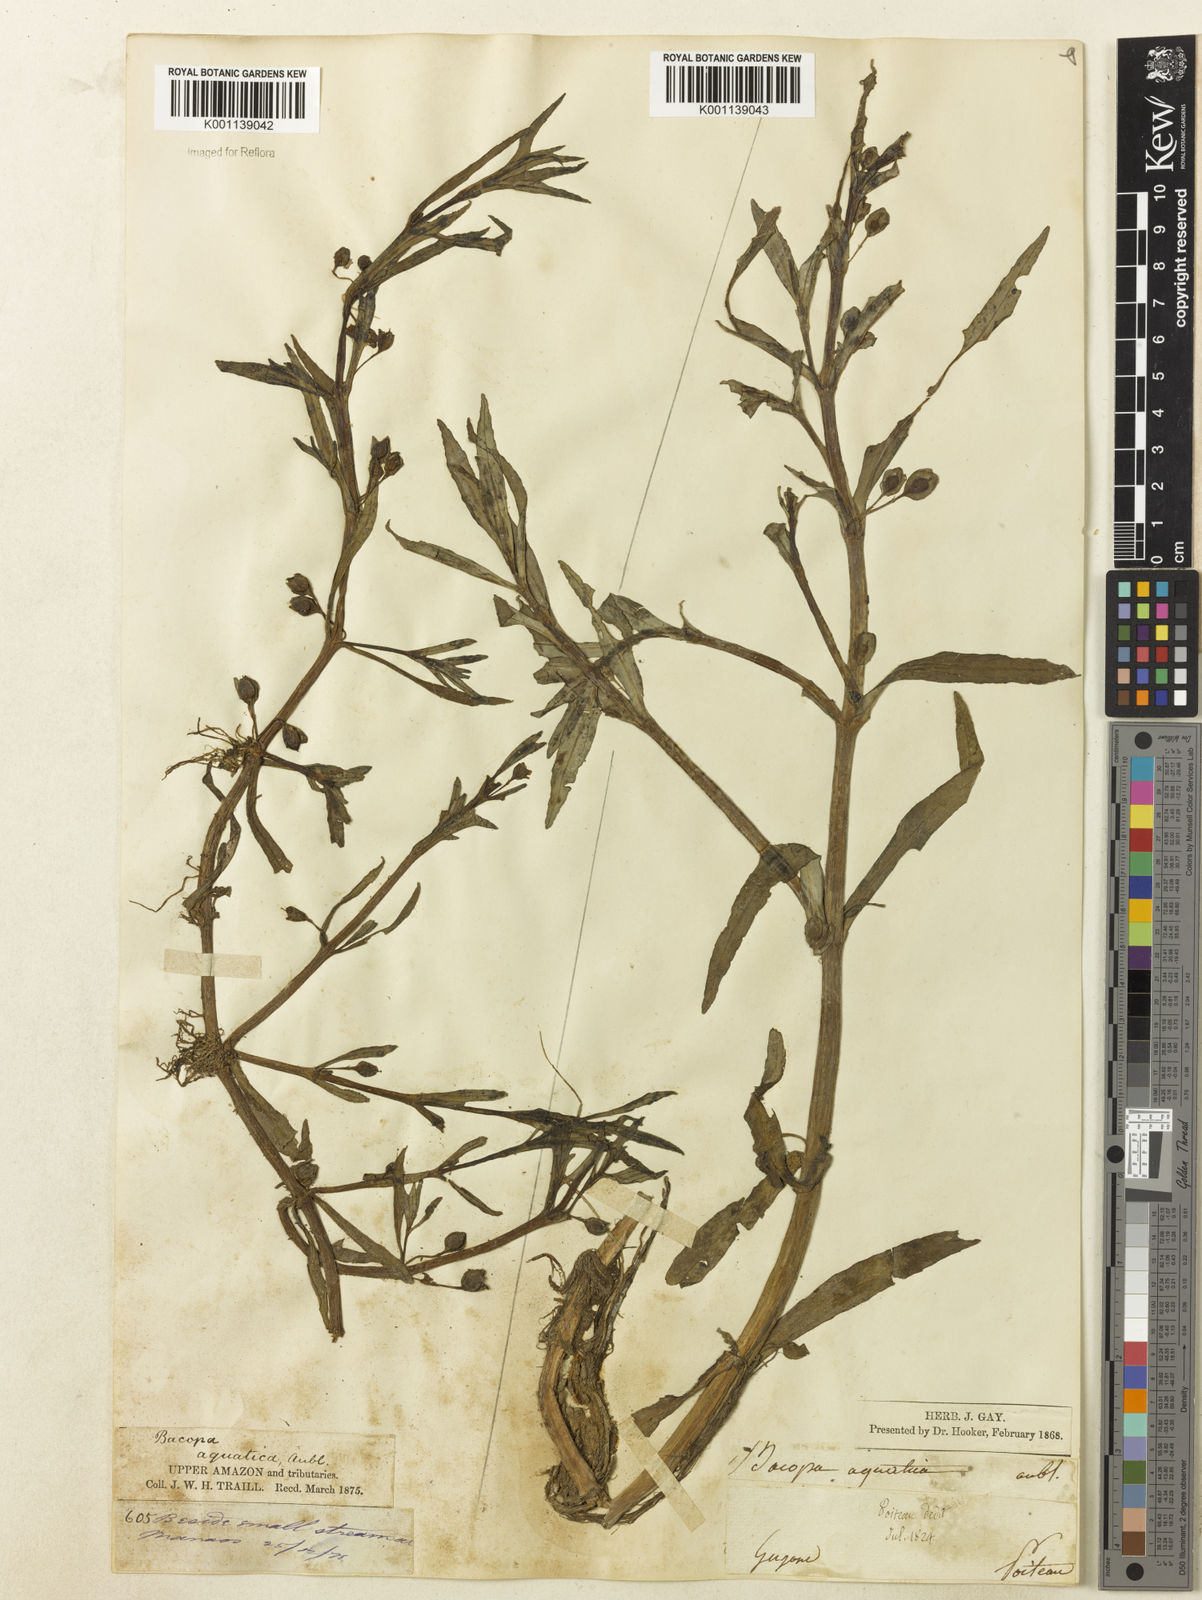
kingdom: Plantae
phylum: Tracheophyta
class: Magnoliopsida
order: Lamiales
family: Plantaginaceae
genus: Bacopa
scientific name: Bacopa aquatica
